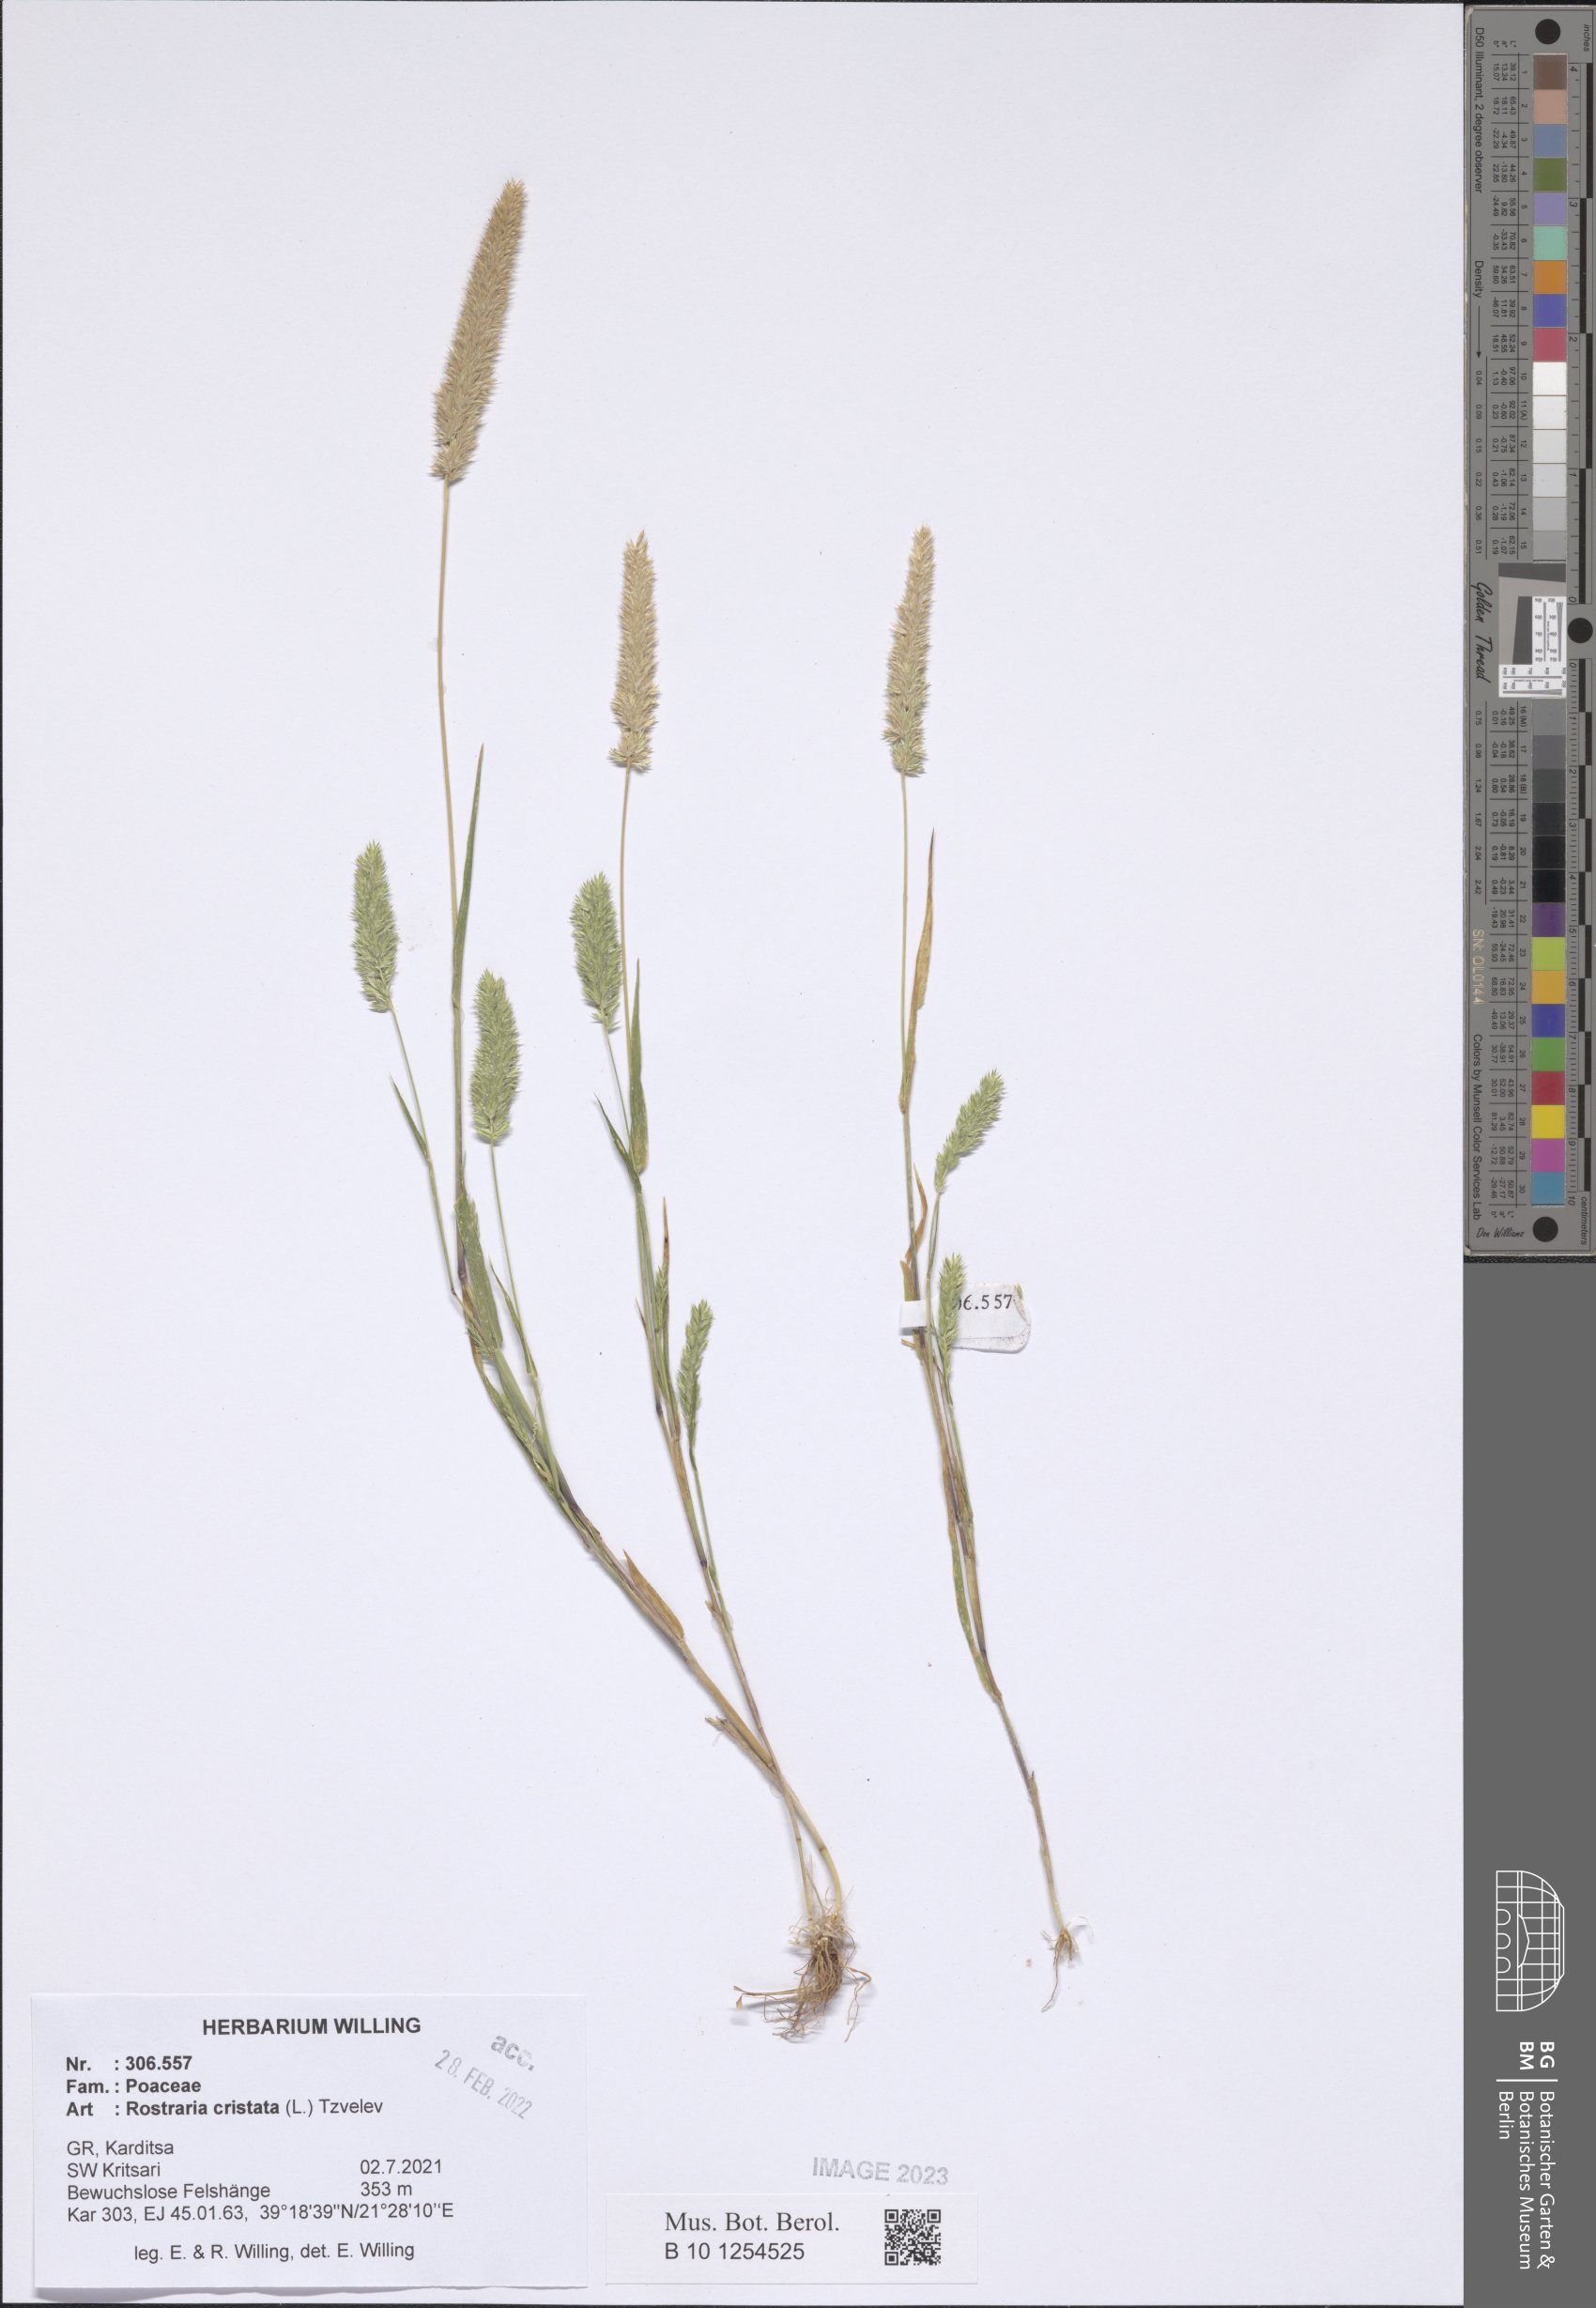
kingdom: Plantae
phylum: Tracheophyta
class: Liliopsida
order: Poales
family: Poaceae
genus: Rostraria
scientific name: Rostraria cristata
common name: Mediterranean hair-grass
